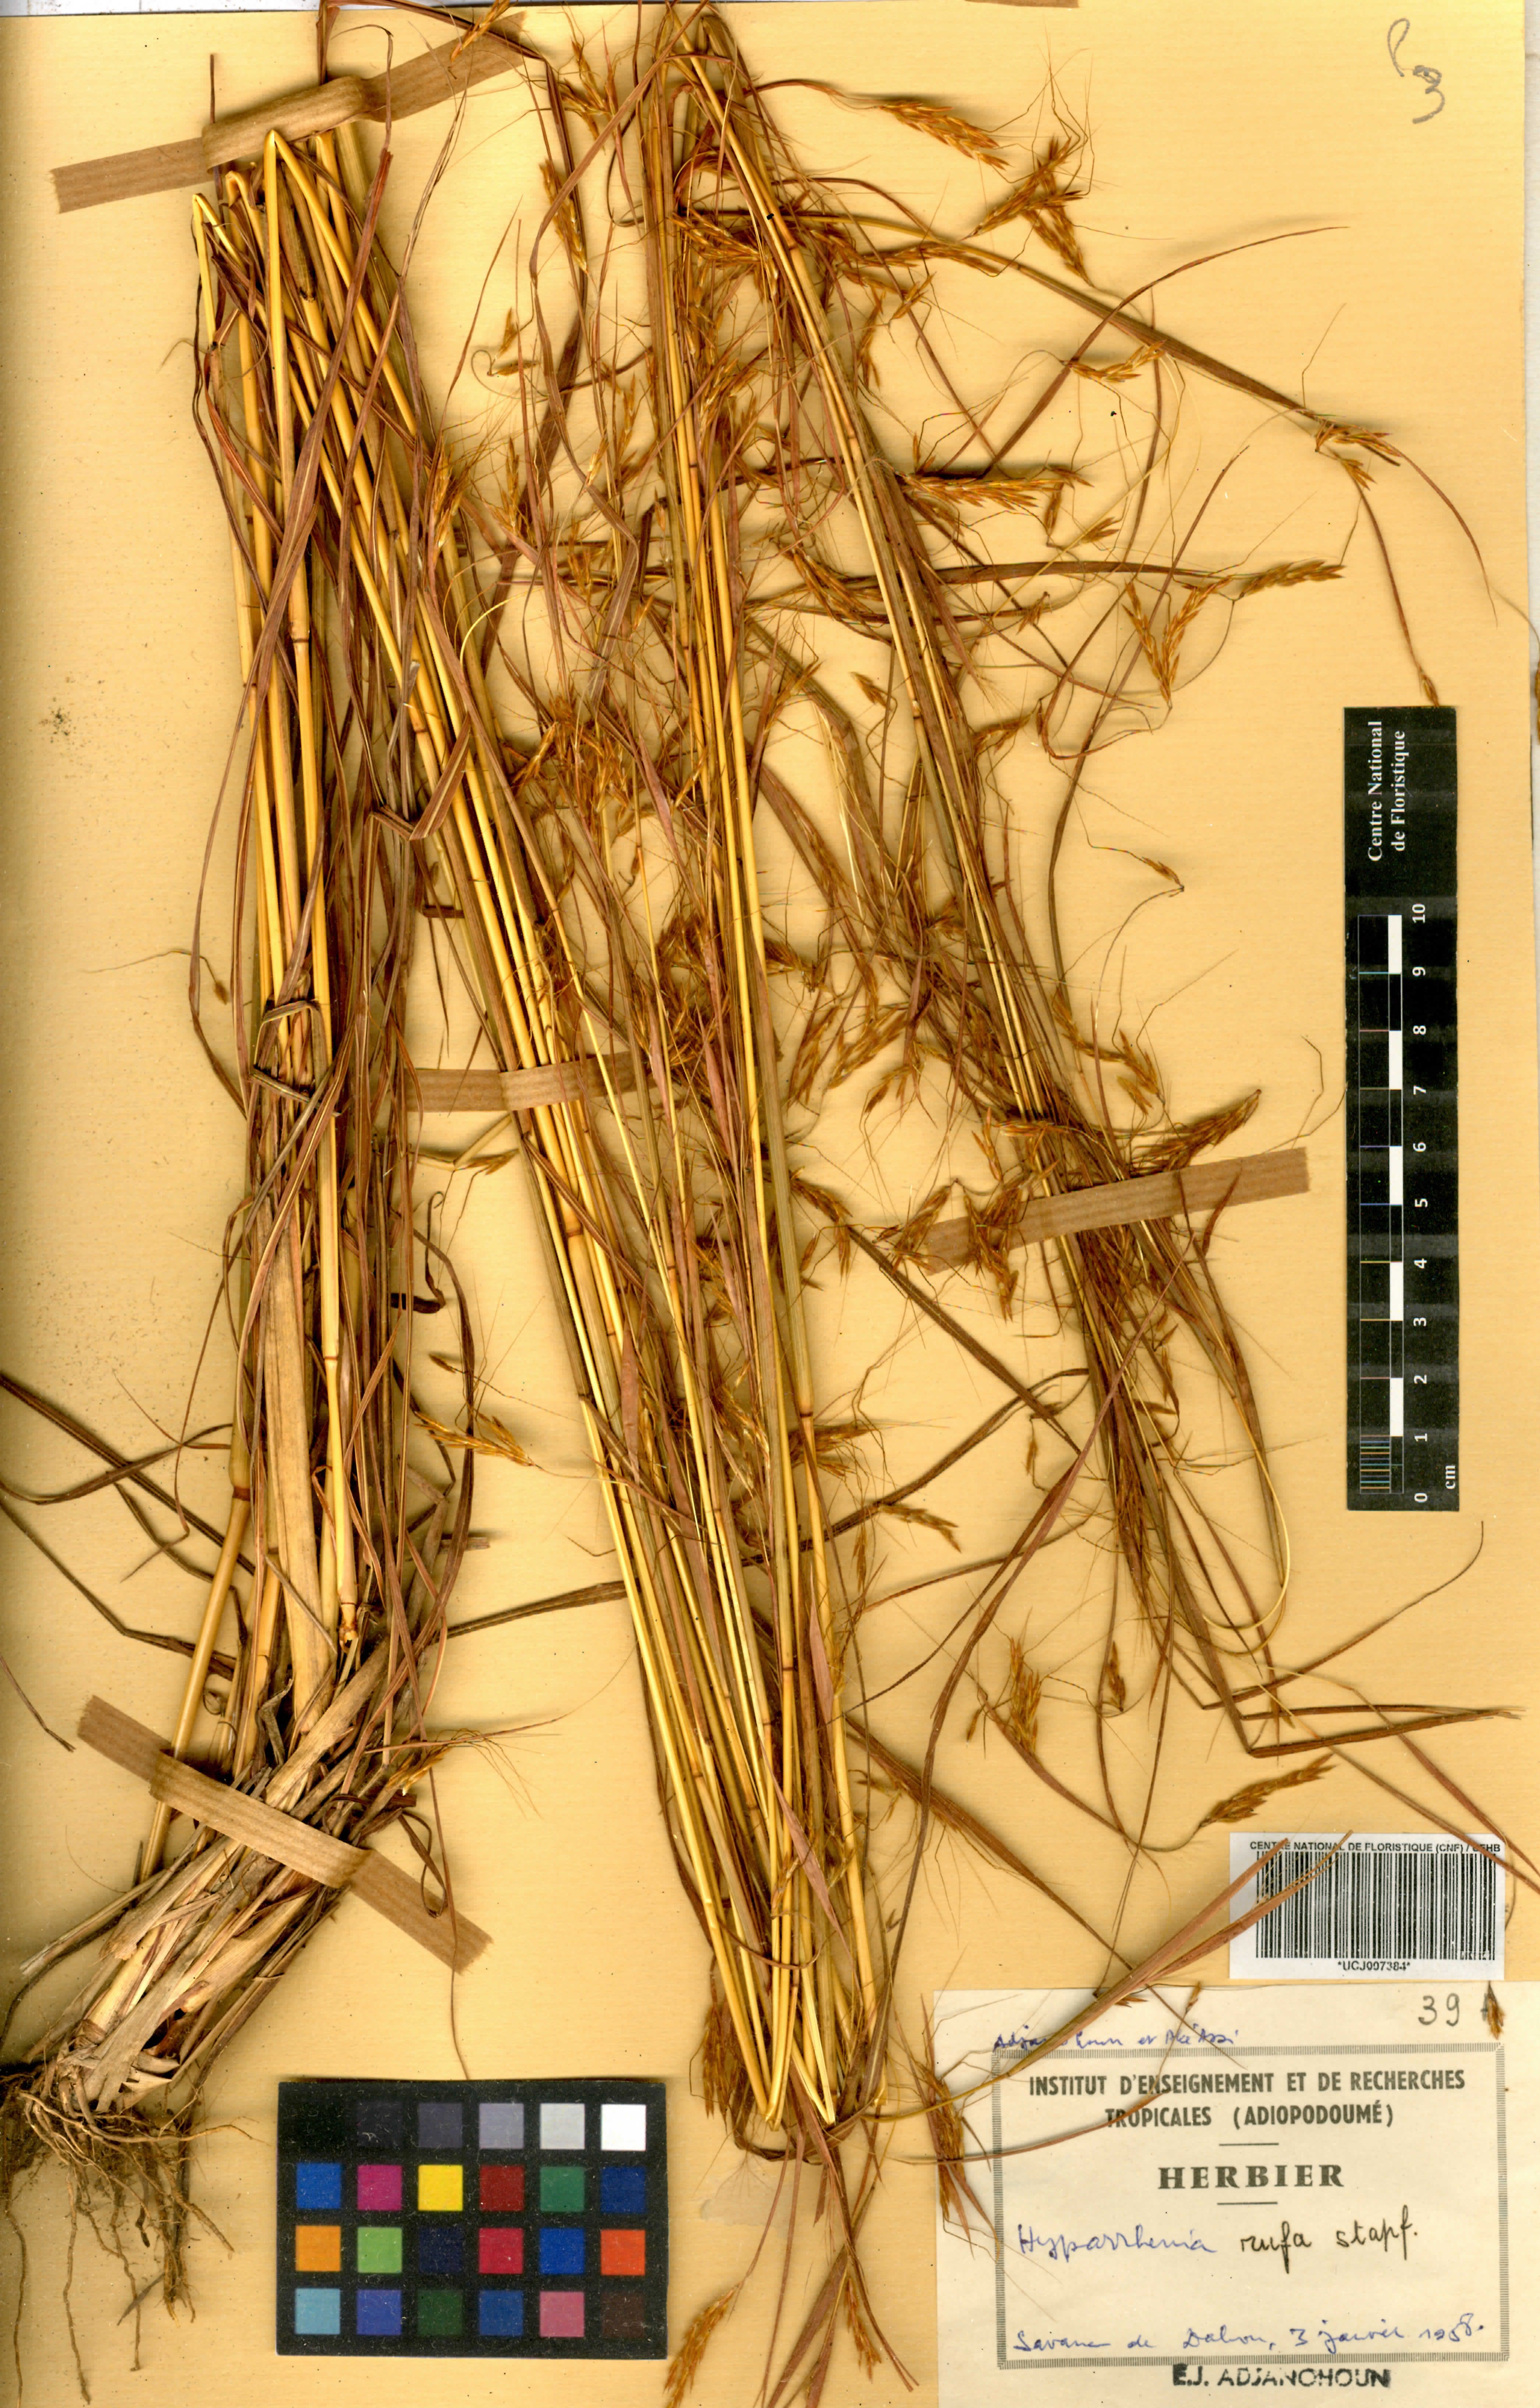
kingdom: Plantae
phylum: Tracheophyta
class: Liliopsida
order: Poales
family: Poaceae
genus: Hyparrhenia
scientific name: Hyparrhenia rufa
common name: Jaraguagrass
